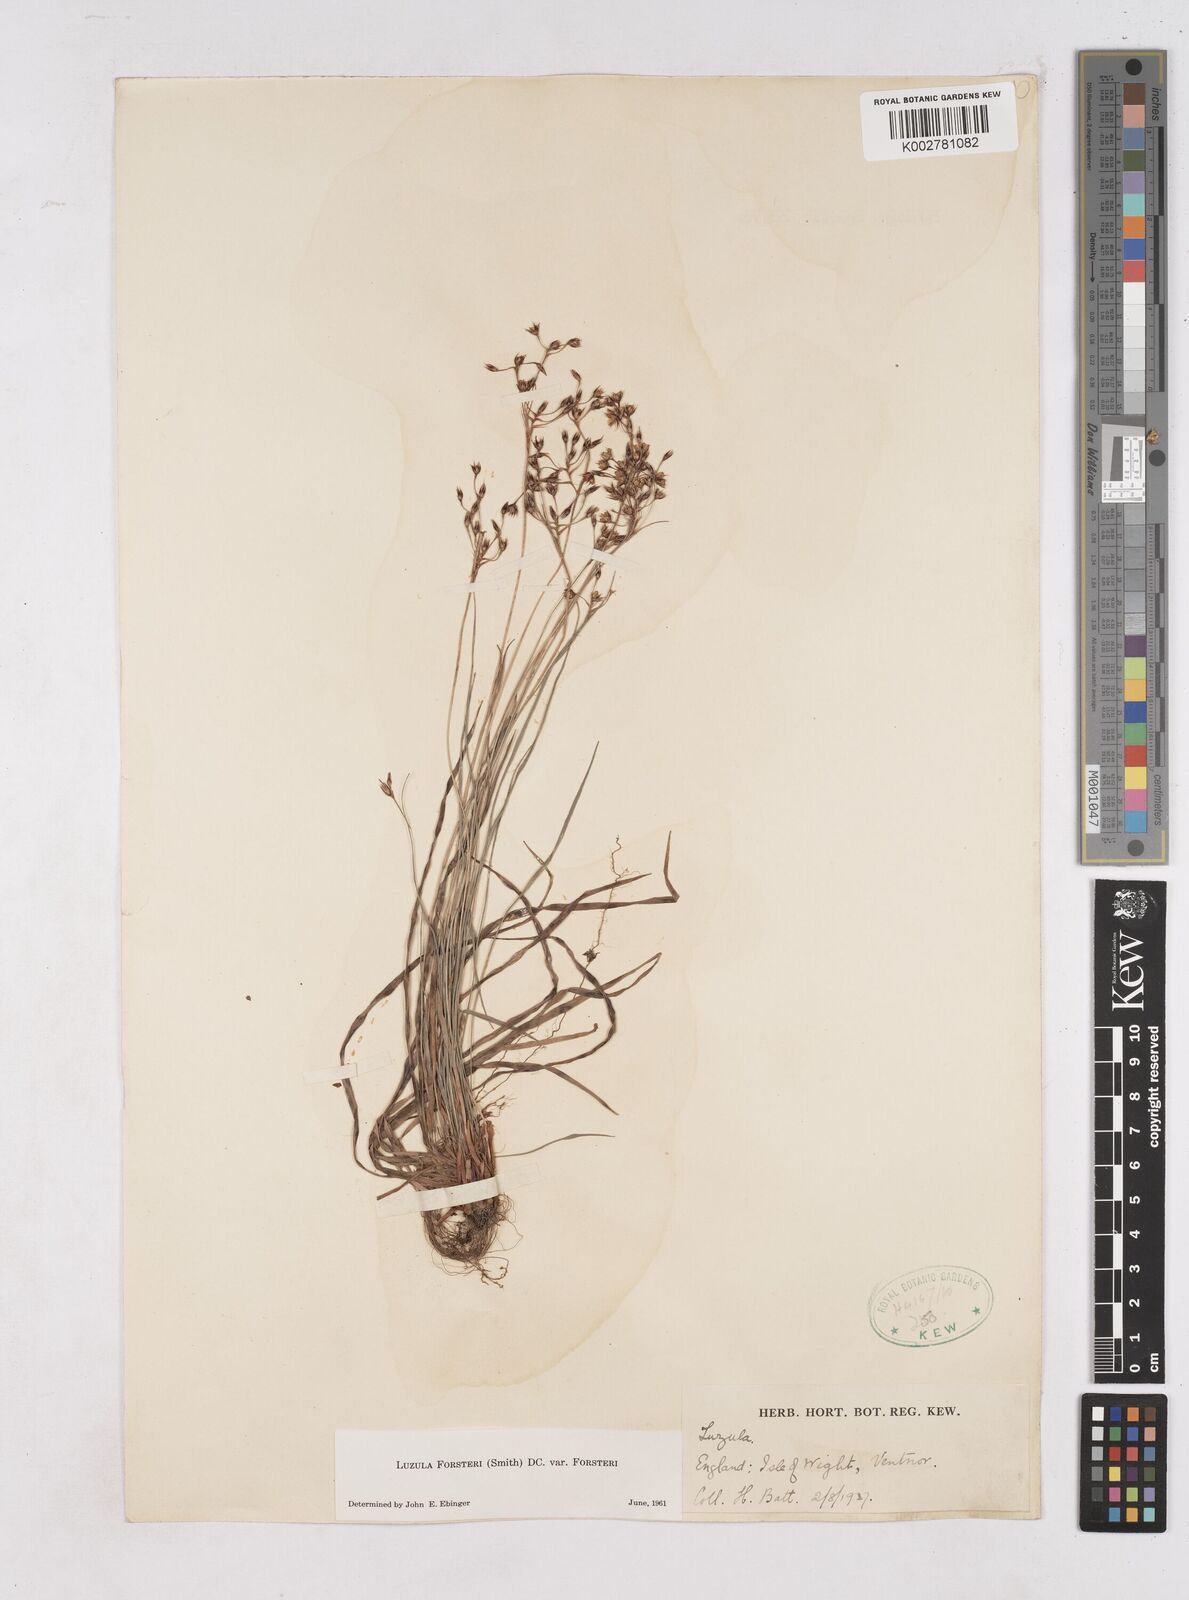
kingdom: Plantae
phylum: Tracheophyta
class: Liliopsida
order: Poales
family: Juncaceae
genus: Luzula
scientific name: Luzula forsteri
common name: Southern wood-rush
